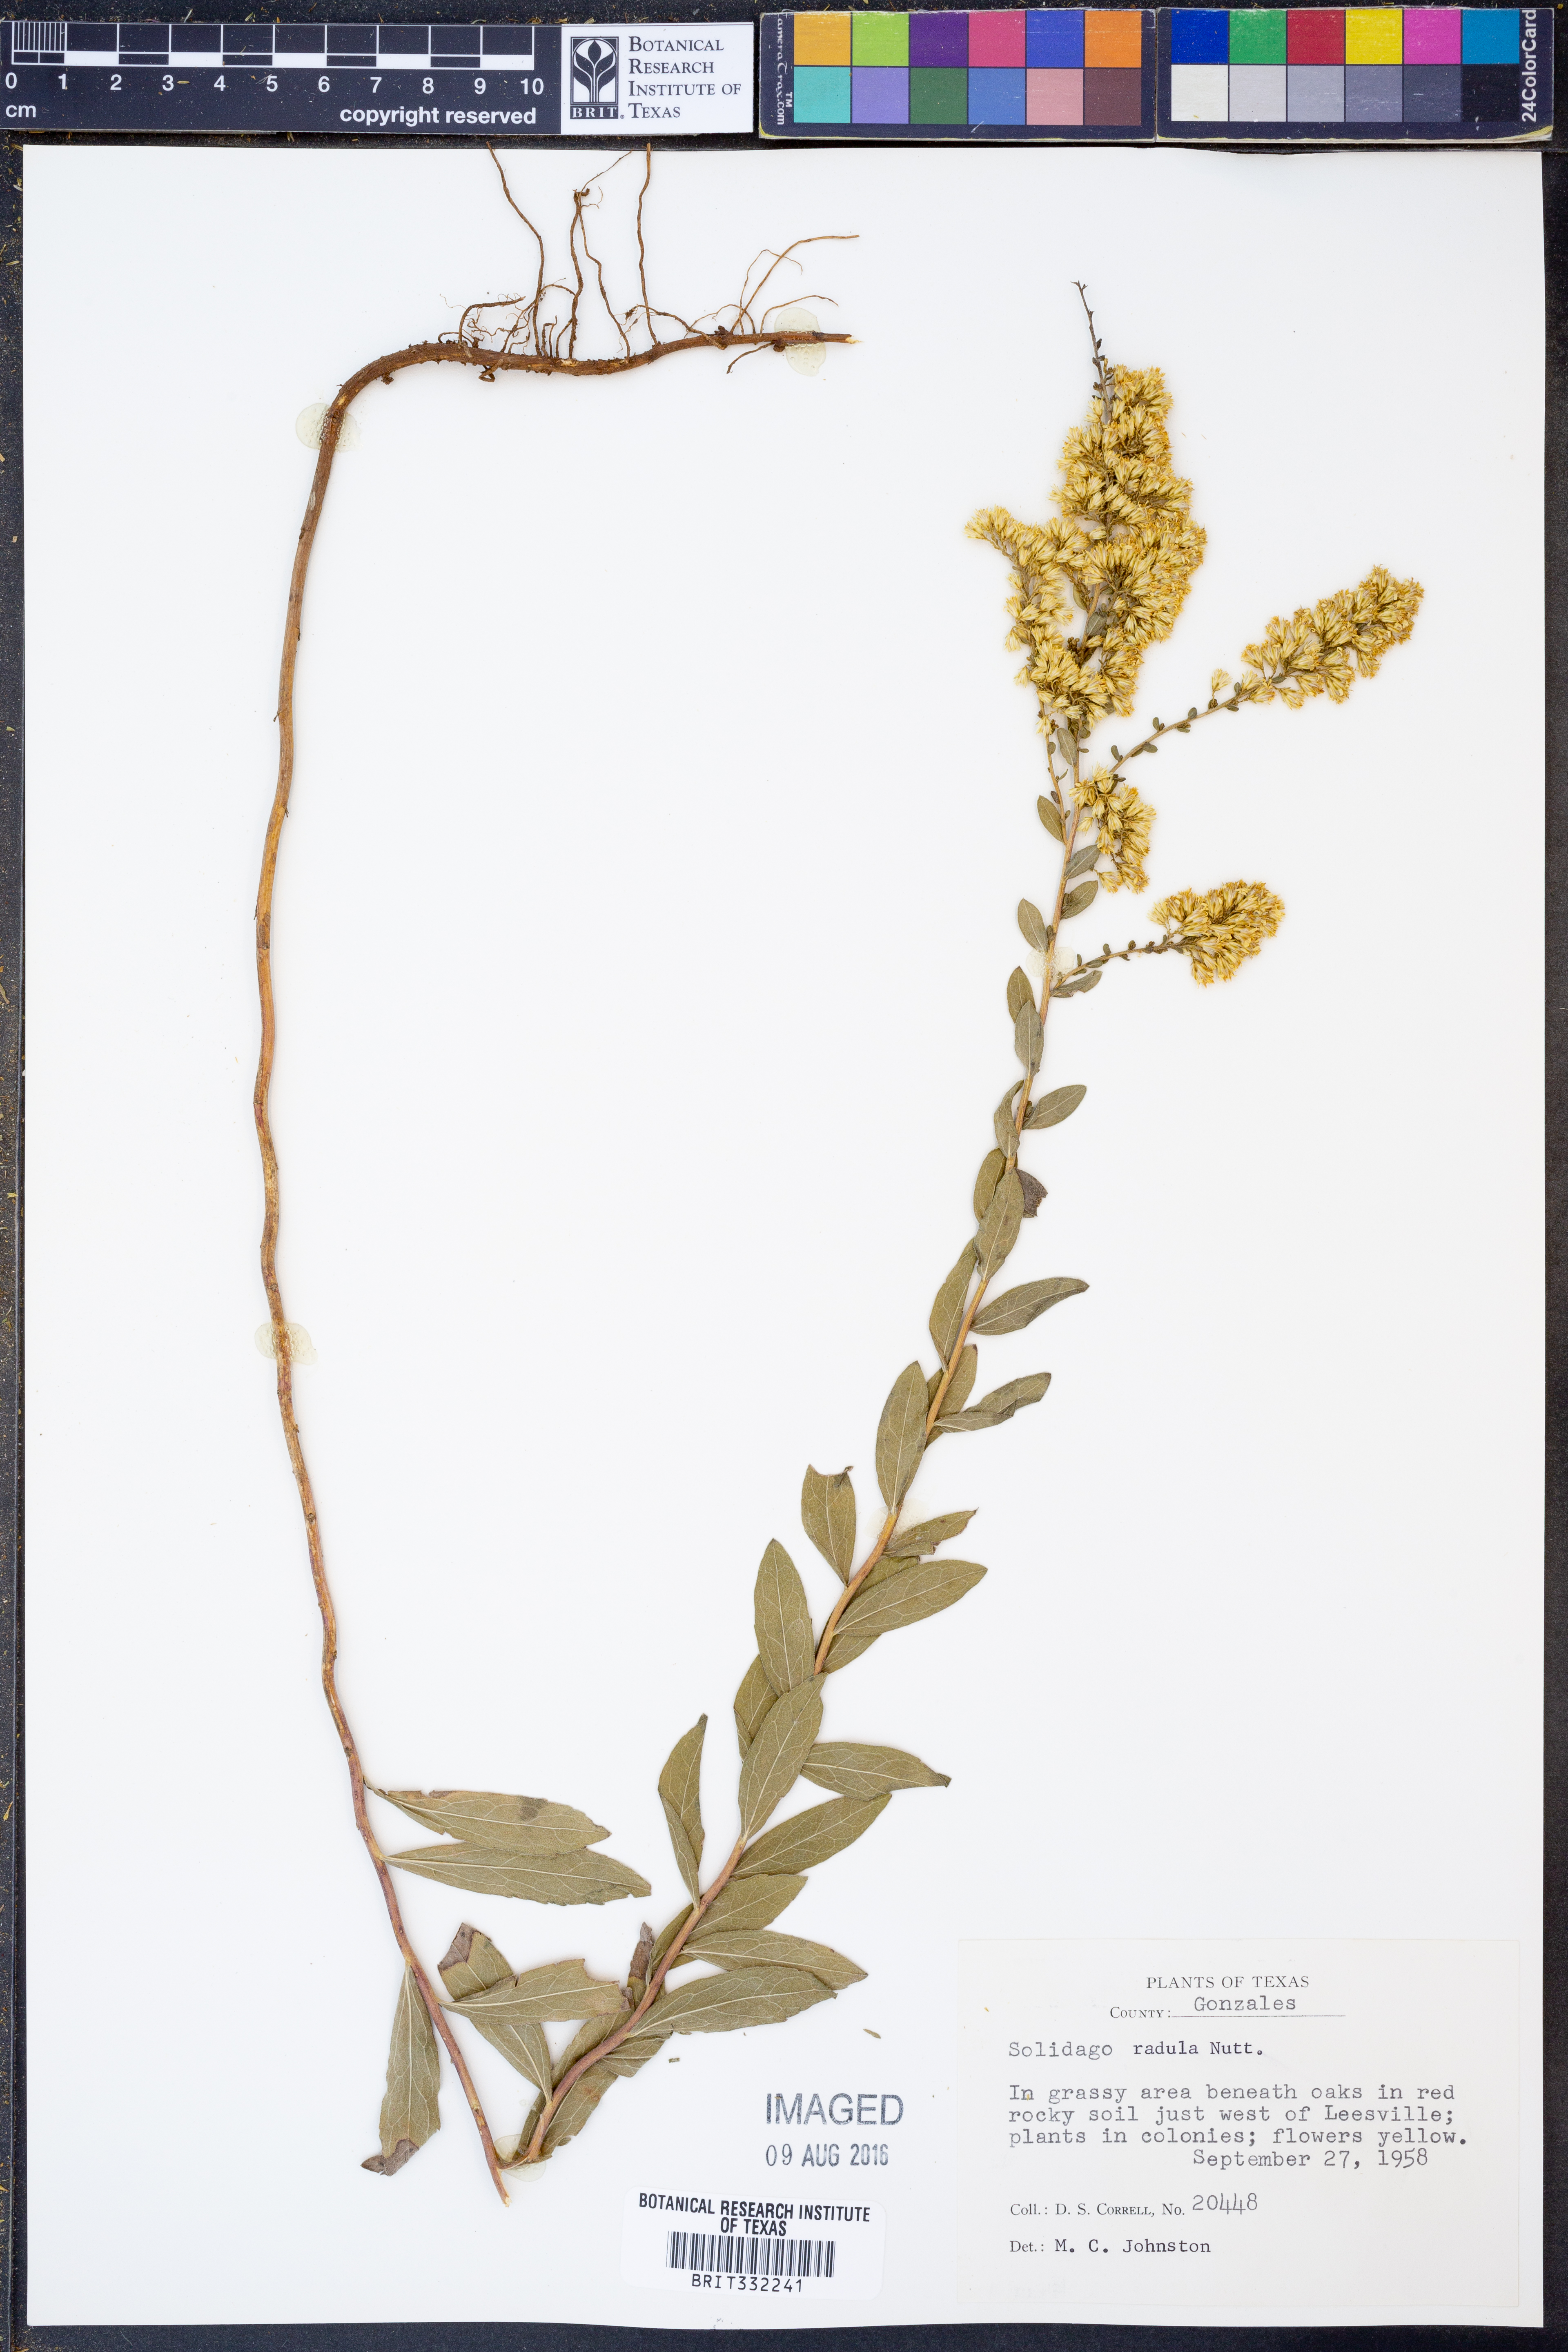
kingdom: Plantae
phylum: Tracheophyta
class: Magnoliopsida
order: Asterales
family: Asteraceae
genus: Solidago
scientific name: Solidago radula
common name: Western rough goldenrod
